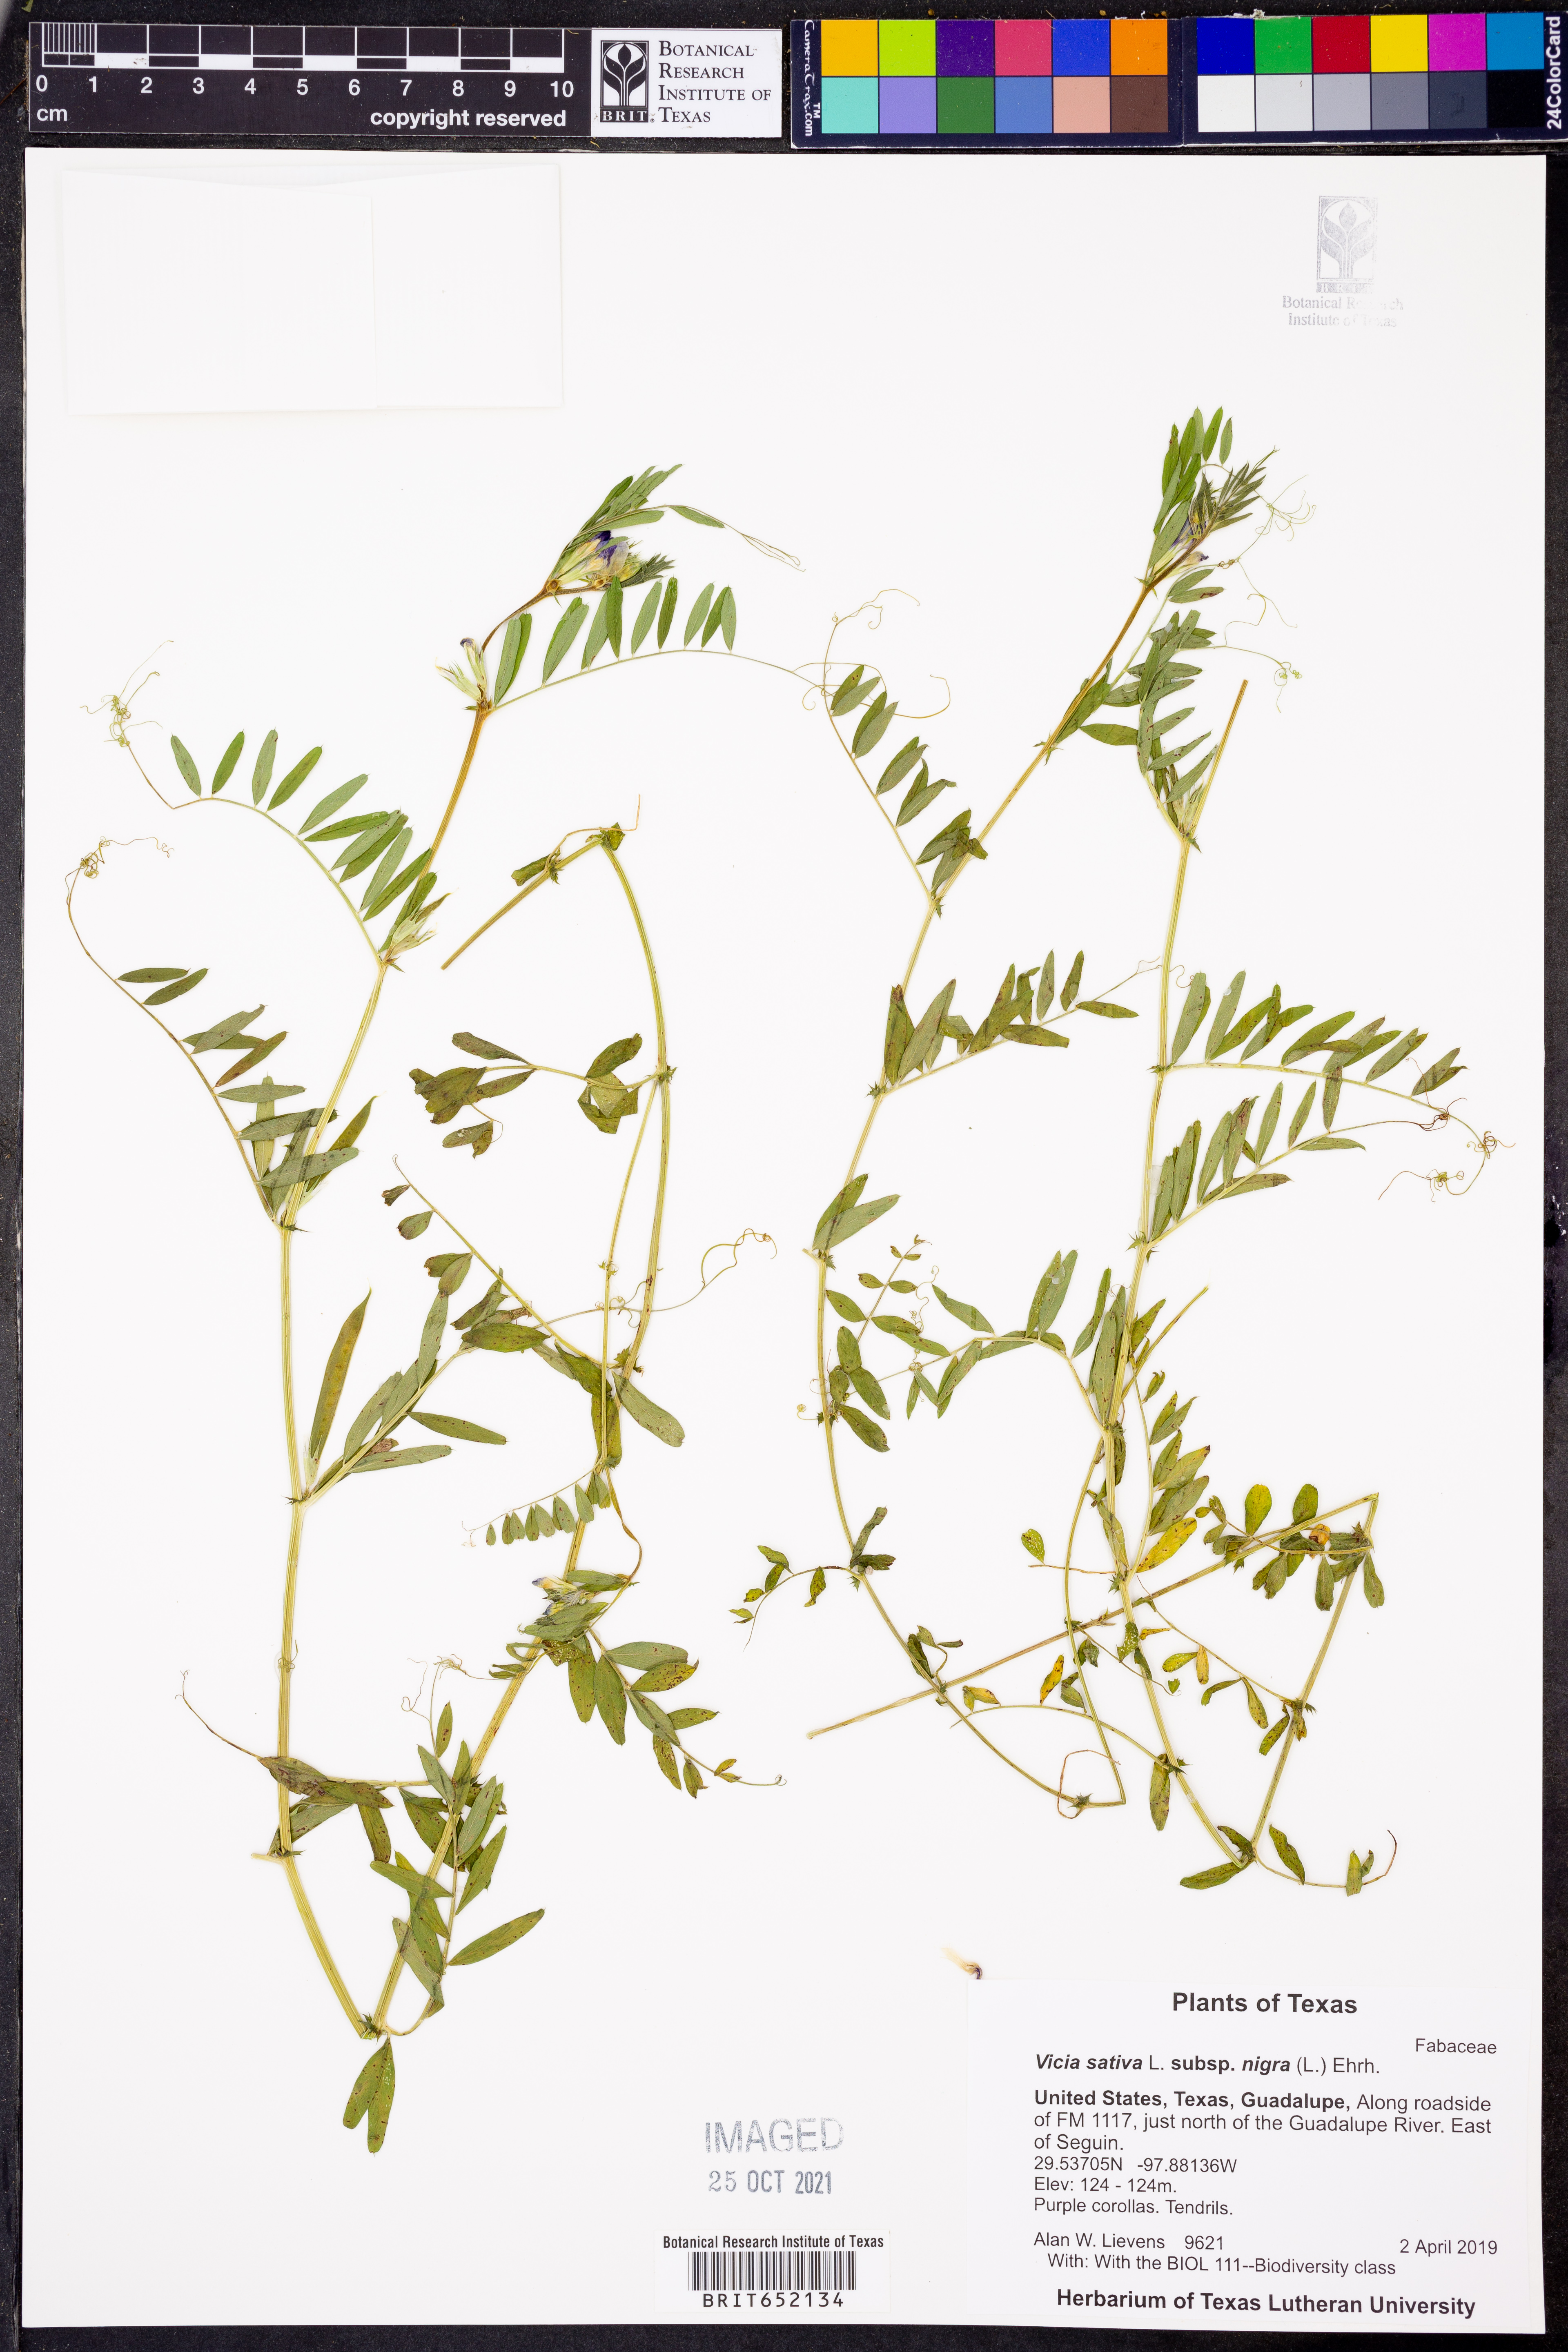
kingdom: Plantae
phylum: Tracheophyta
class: Magnoliopsida
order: Fabales
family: Fabaceae
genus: Vicia
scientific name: Vicia sativa
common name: Garden vetch
